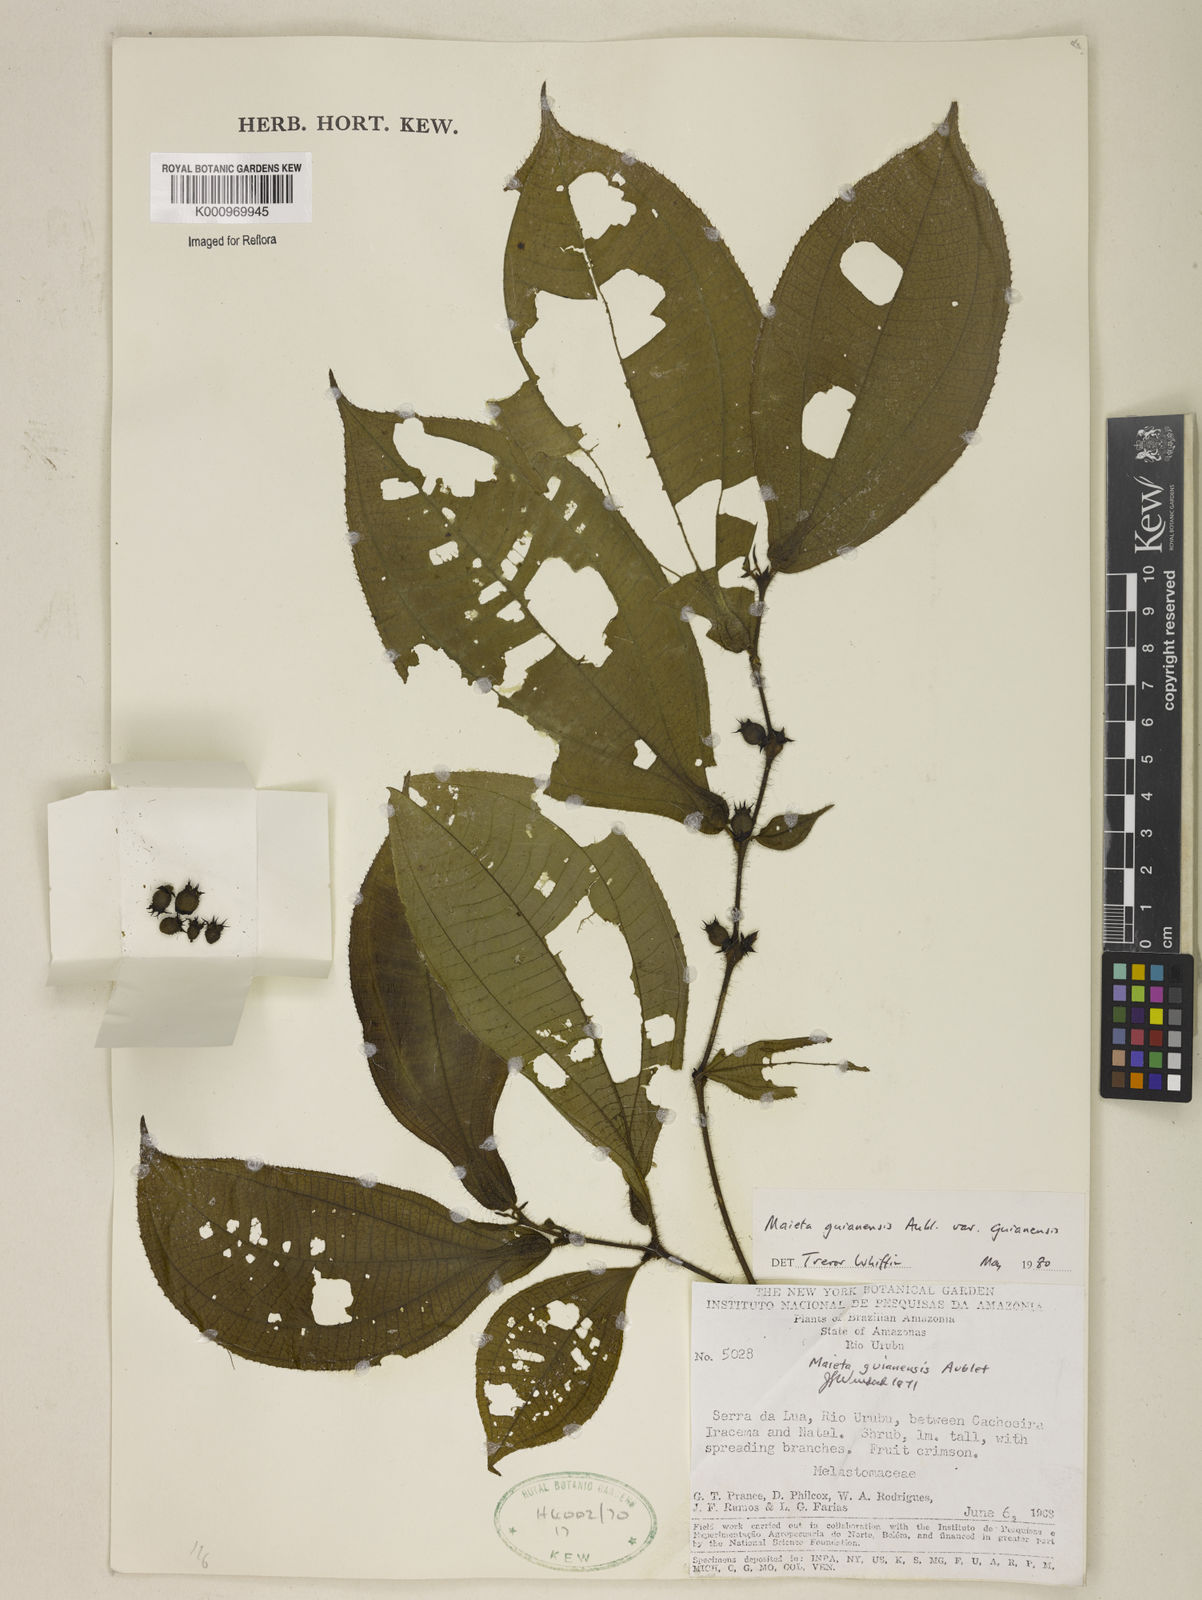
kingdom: Plantae
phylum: Tracheophyta
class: Magnoliopsida
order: Myrtales
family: Melastomataceae
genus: Miconia
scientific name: Miconia mayeta
